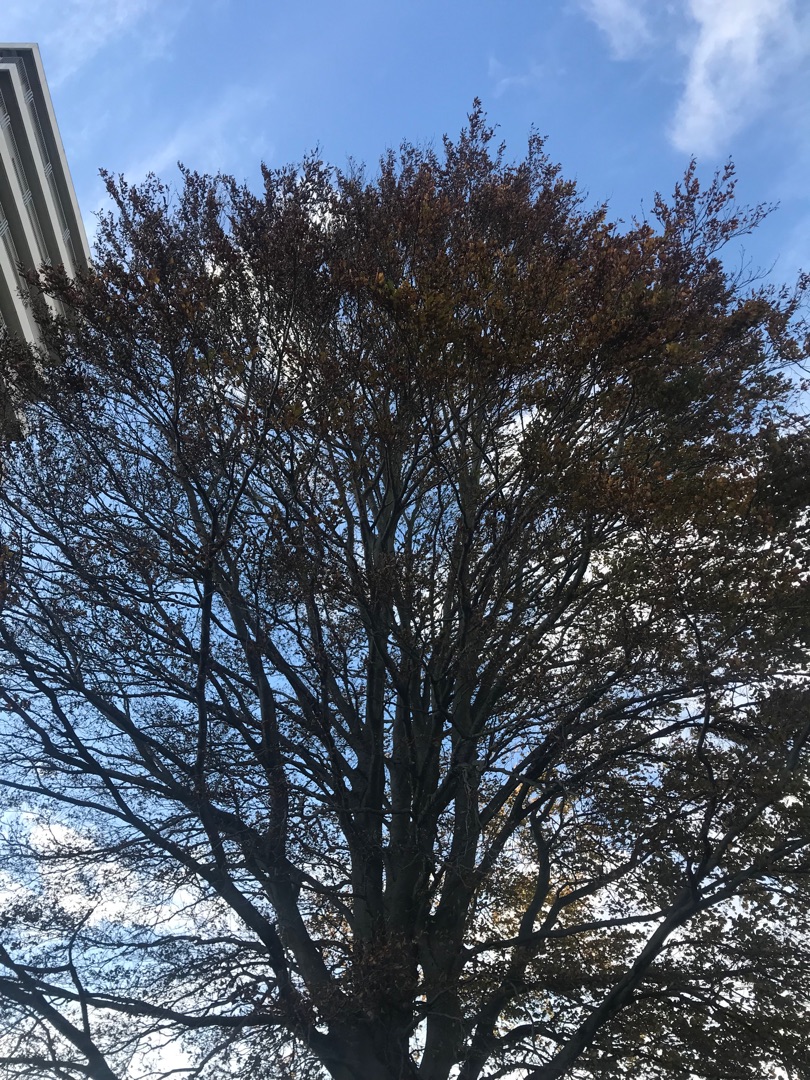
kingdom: Plantae
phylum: Tracheophyta
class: Magnoliopsida
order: Fagales
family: Fagaceae
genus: Fagus
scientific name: Fagus sylvatica
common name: Bøg
